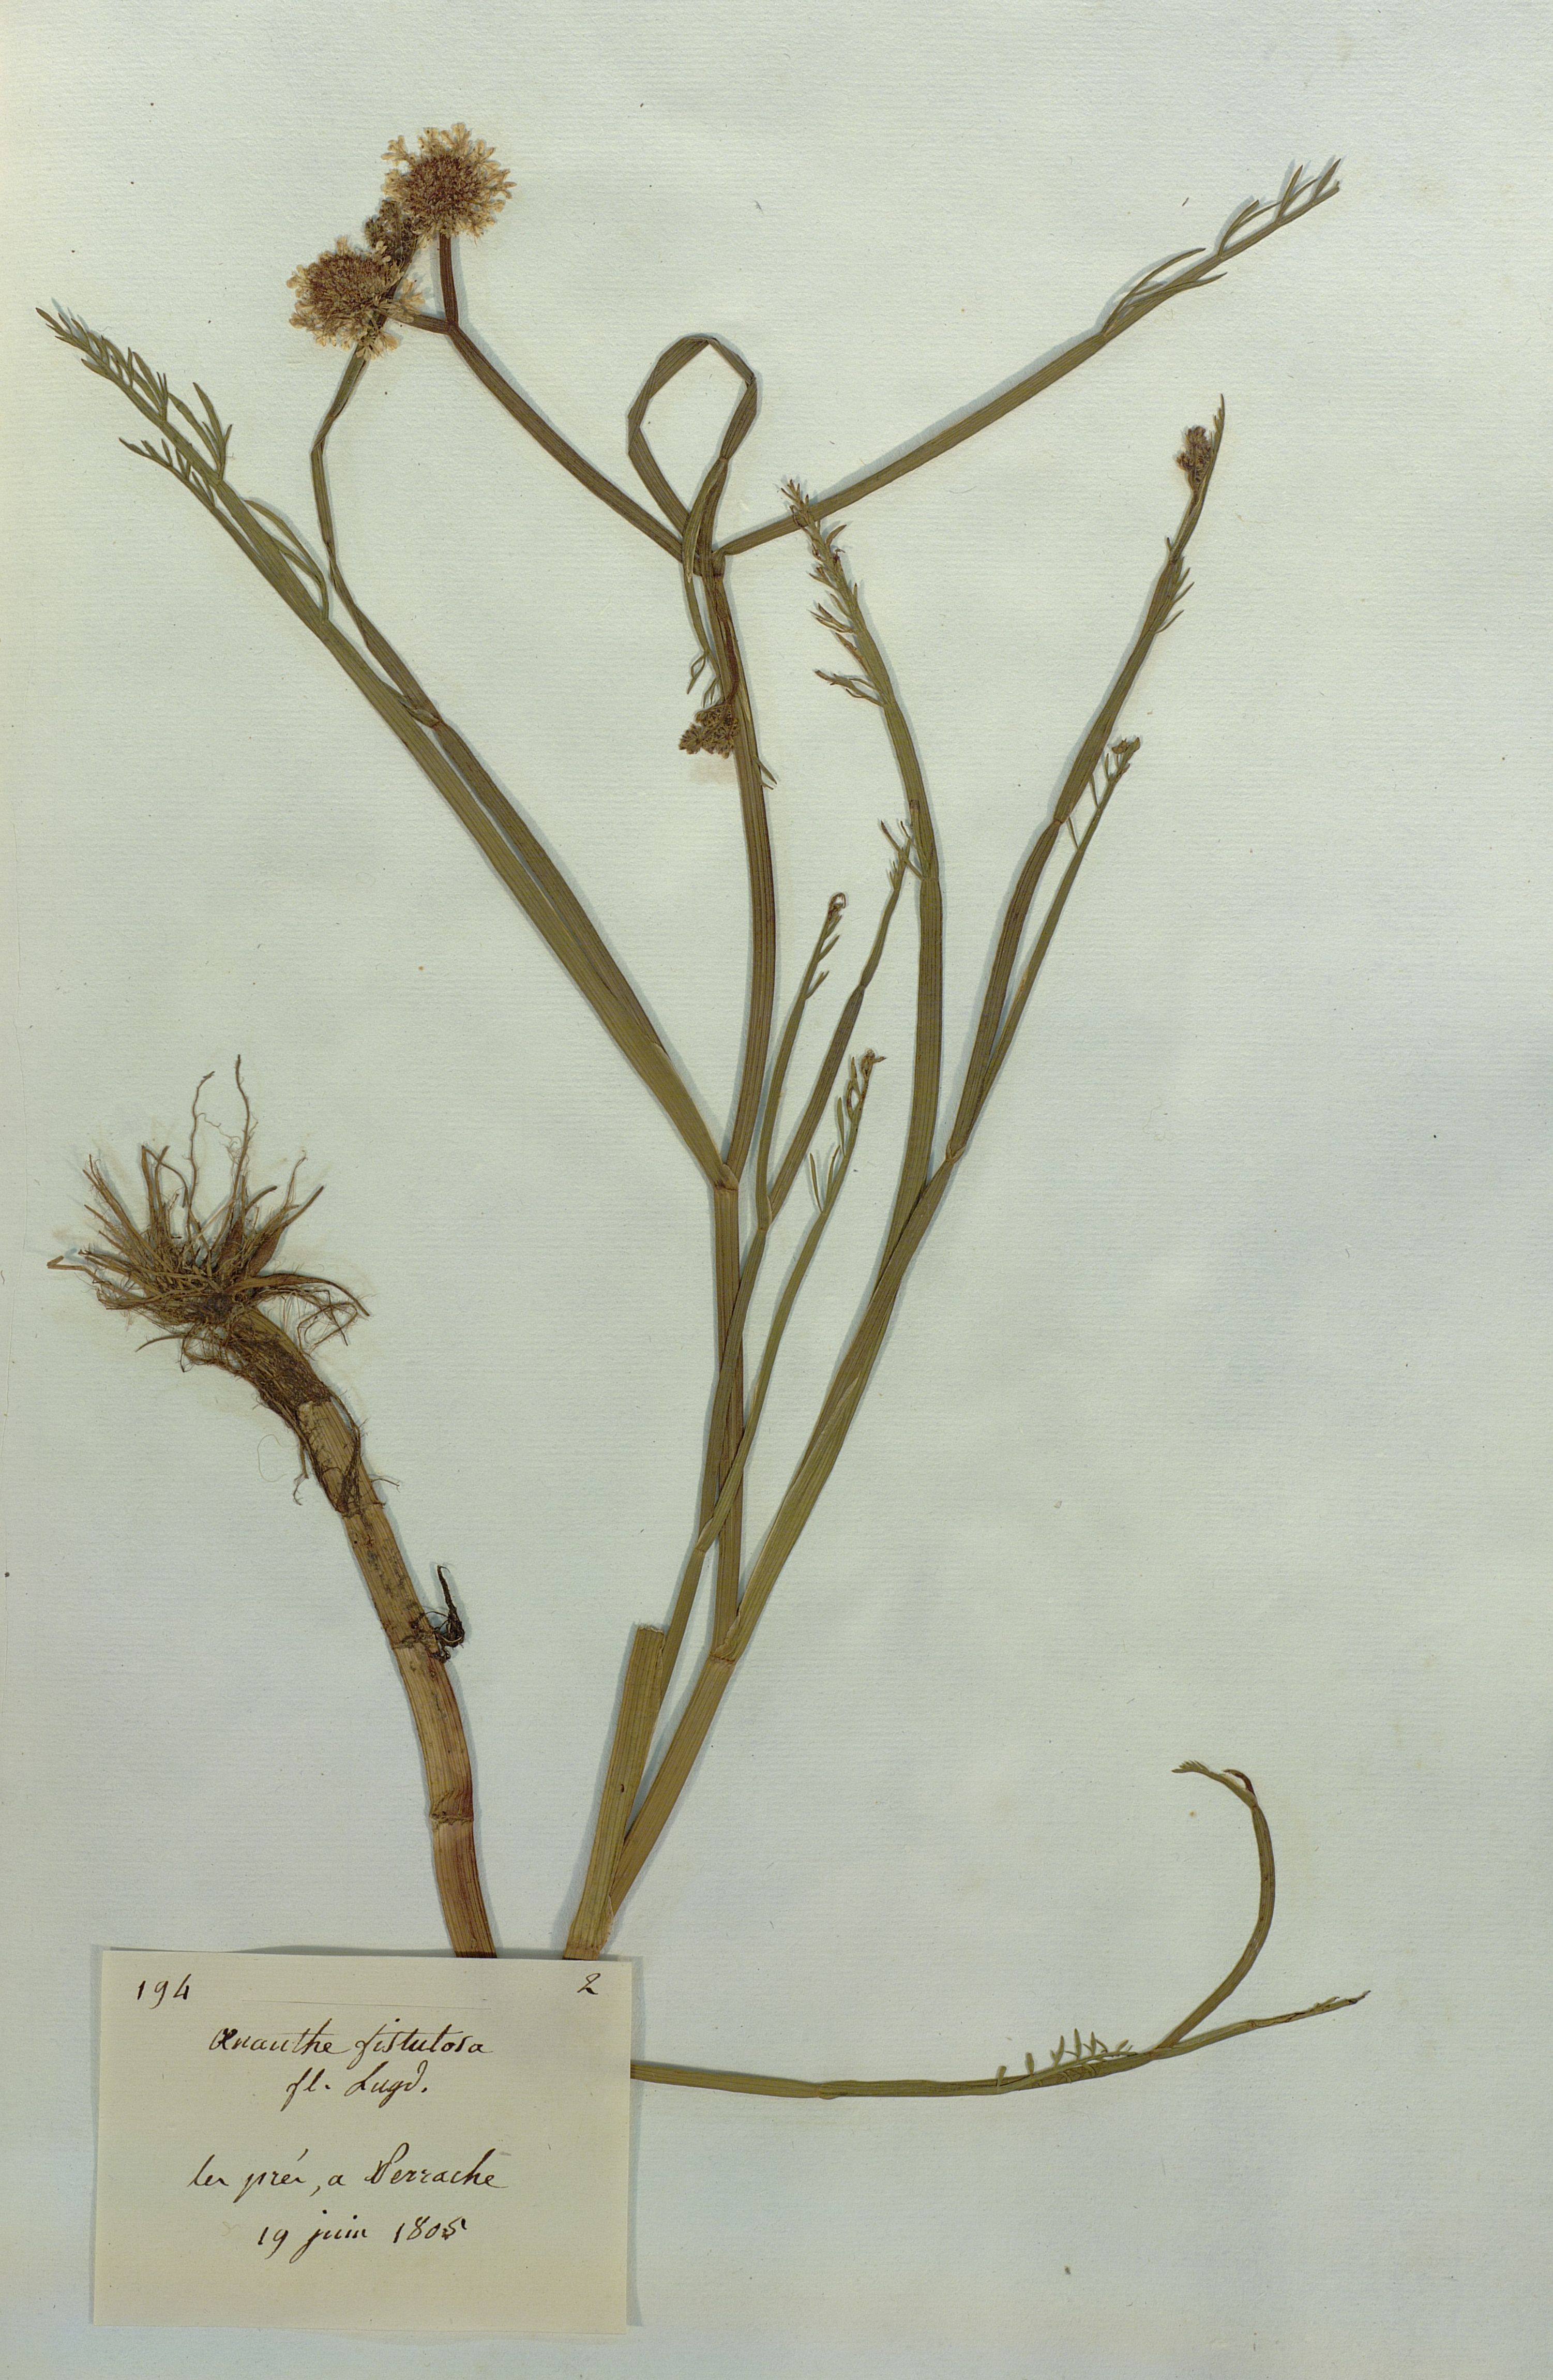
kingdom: Plantae
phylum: Tracheophyta
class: Magnoliopsida
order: Apiales
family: Apiaceae
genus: Oenanthe
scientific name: Oenanthe fistulosa
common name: Tubular water-dropwort
